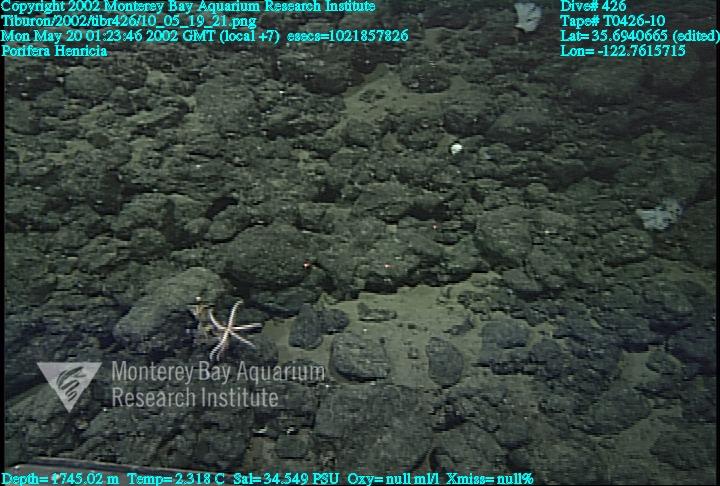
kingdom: Animalia
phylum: Porifera
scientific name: Porifera
